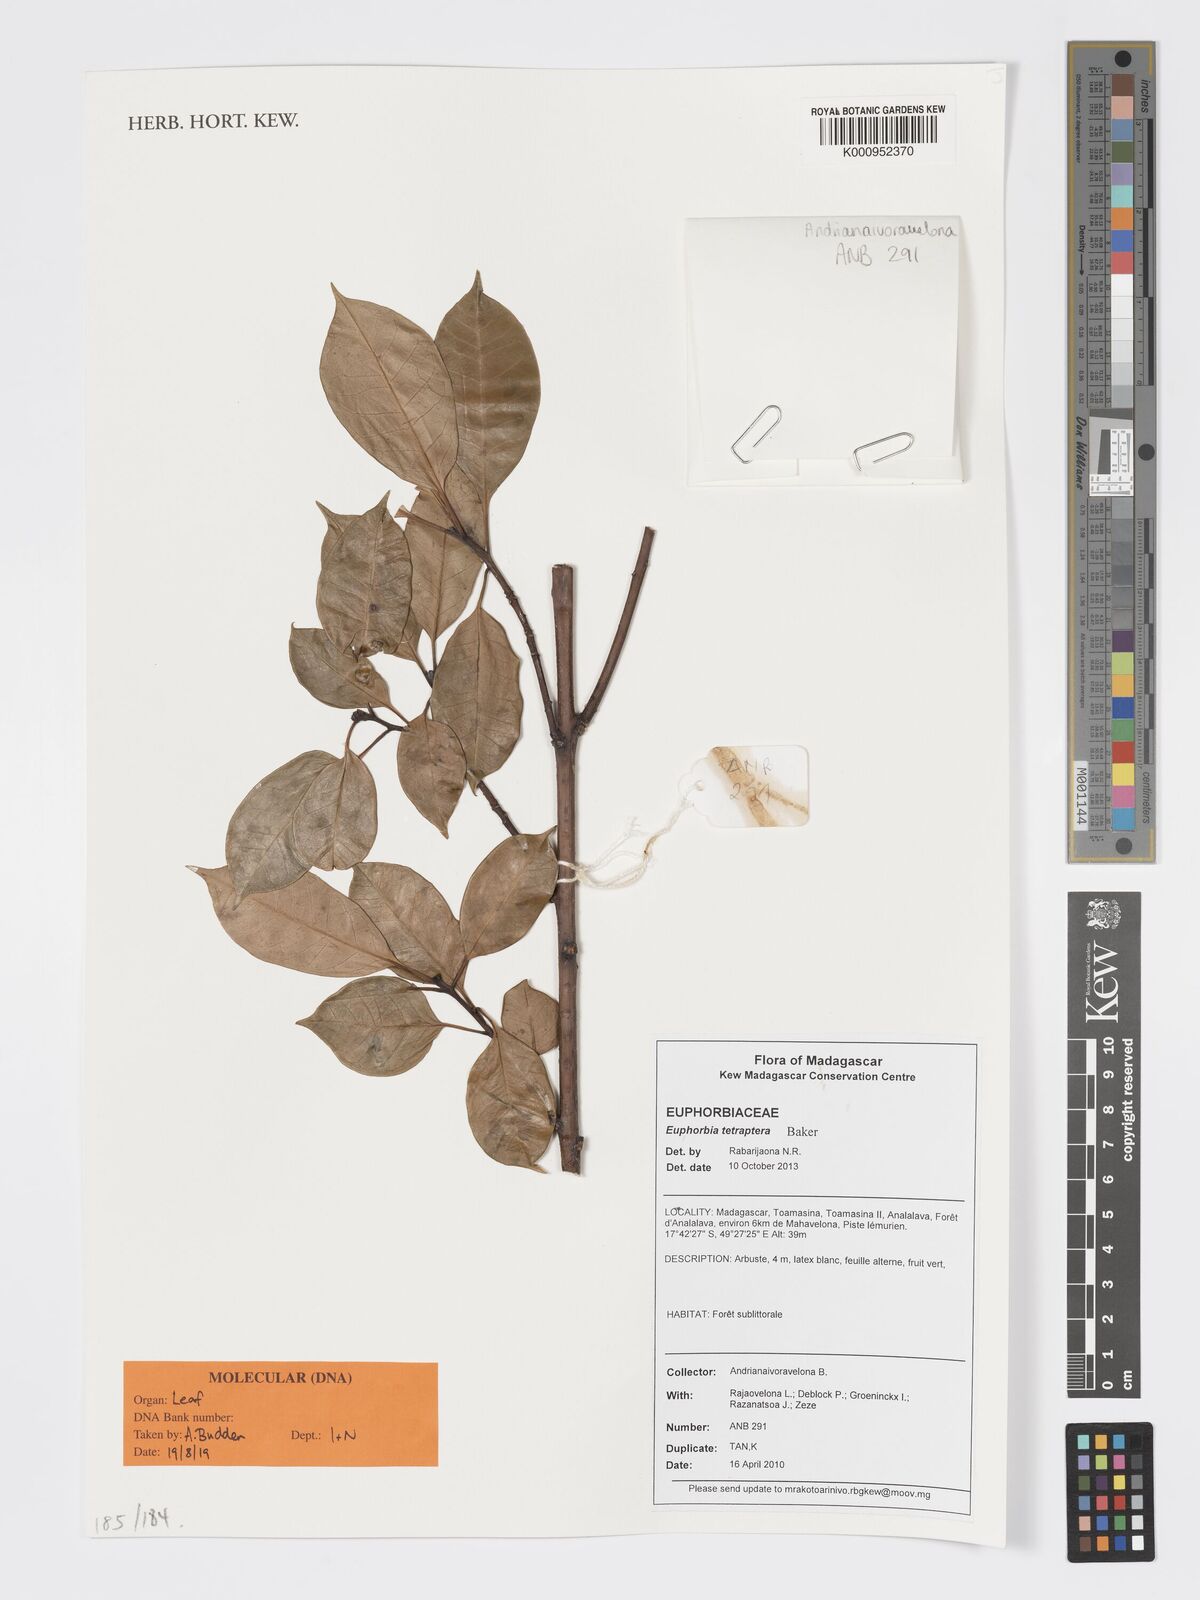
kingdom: Plantae
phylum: Tracheophyta
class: Magnoliopsida
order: Malpighiales
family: Euphorbiaceae
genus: Euphorbia
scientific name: Euphorbia tetraptera
